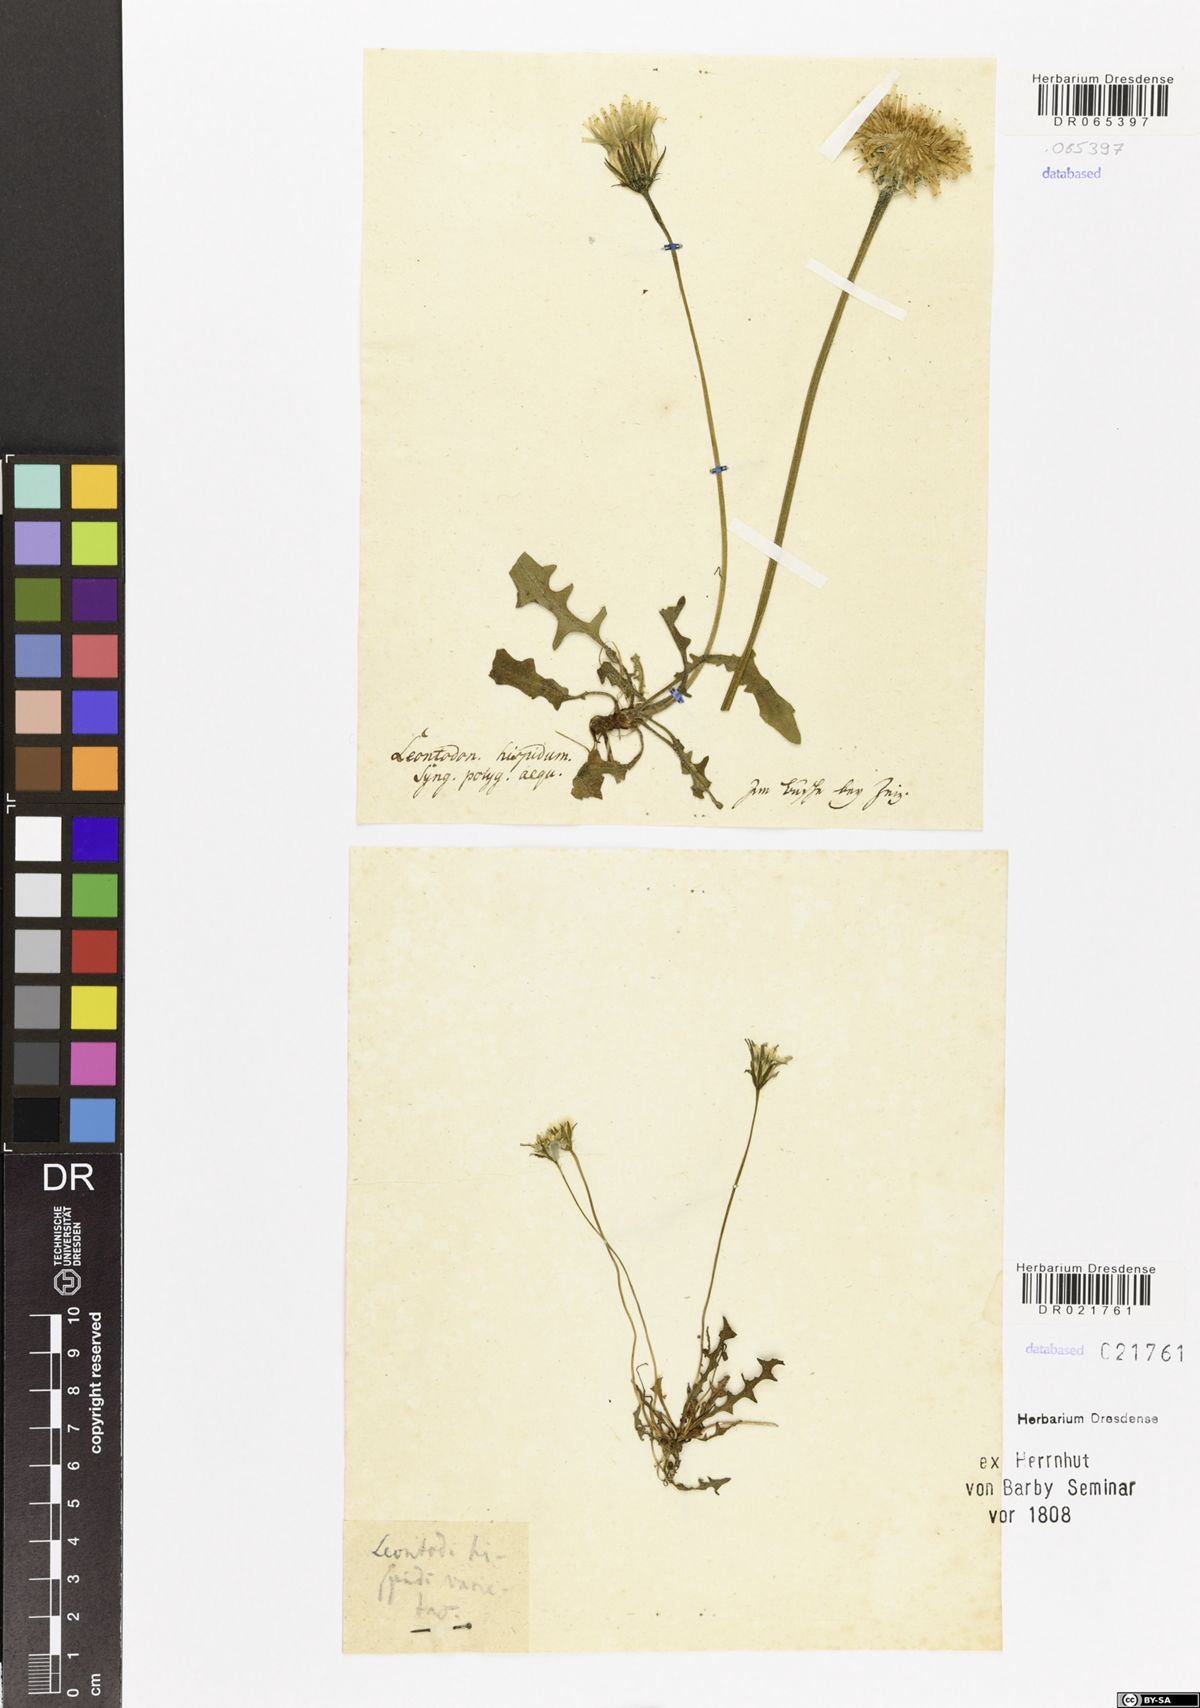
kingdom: Plantae
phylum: Tracheophyta
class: Magnoliopsida
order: Asterales
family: Asteraceae
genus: Leontodon
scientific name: Leontodon hispidus
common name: Rough hawkbit
